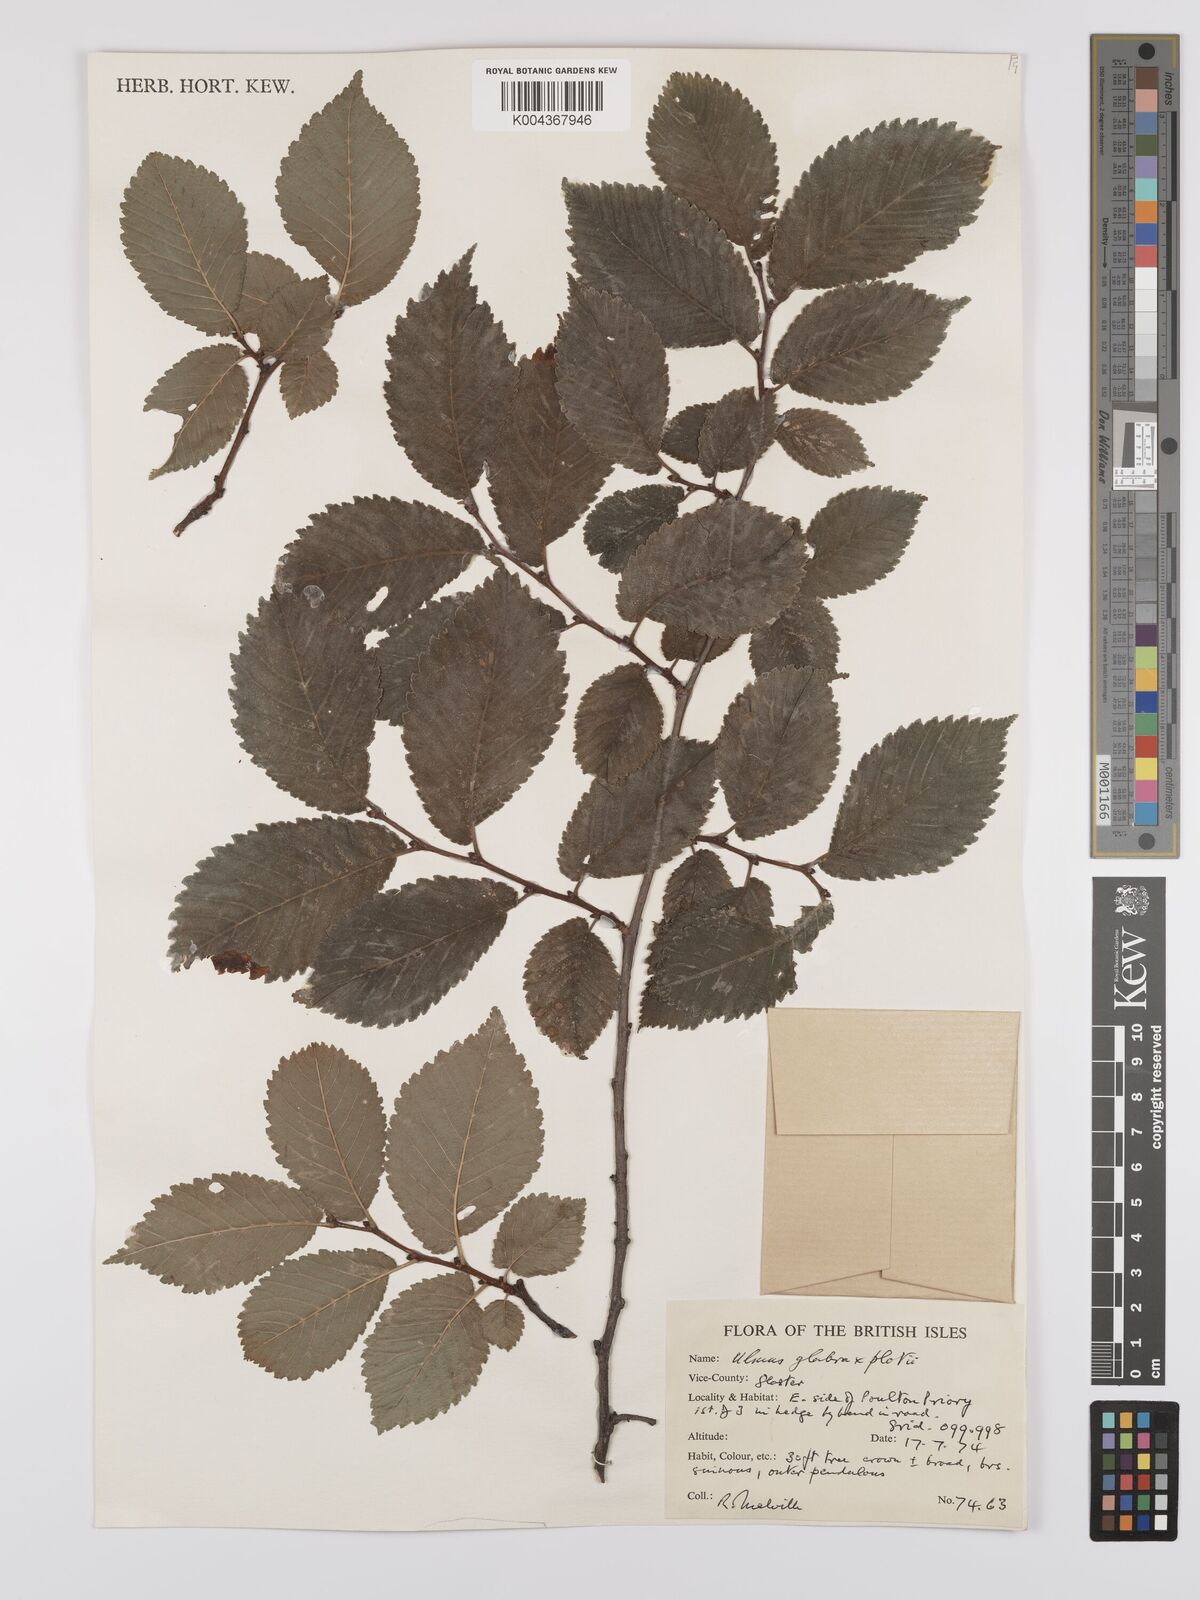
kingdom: Plantae
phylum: Tracheophyta
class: Magnoliopsida
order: Rosales
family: Ulmaceae
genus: Ulmus
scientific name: Ulmus glabra
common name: Wych elm
